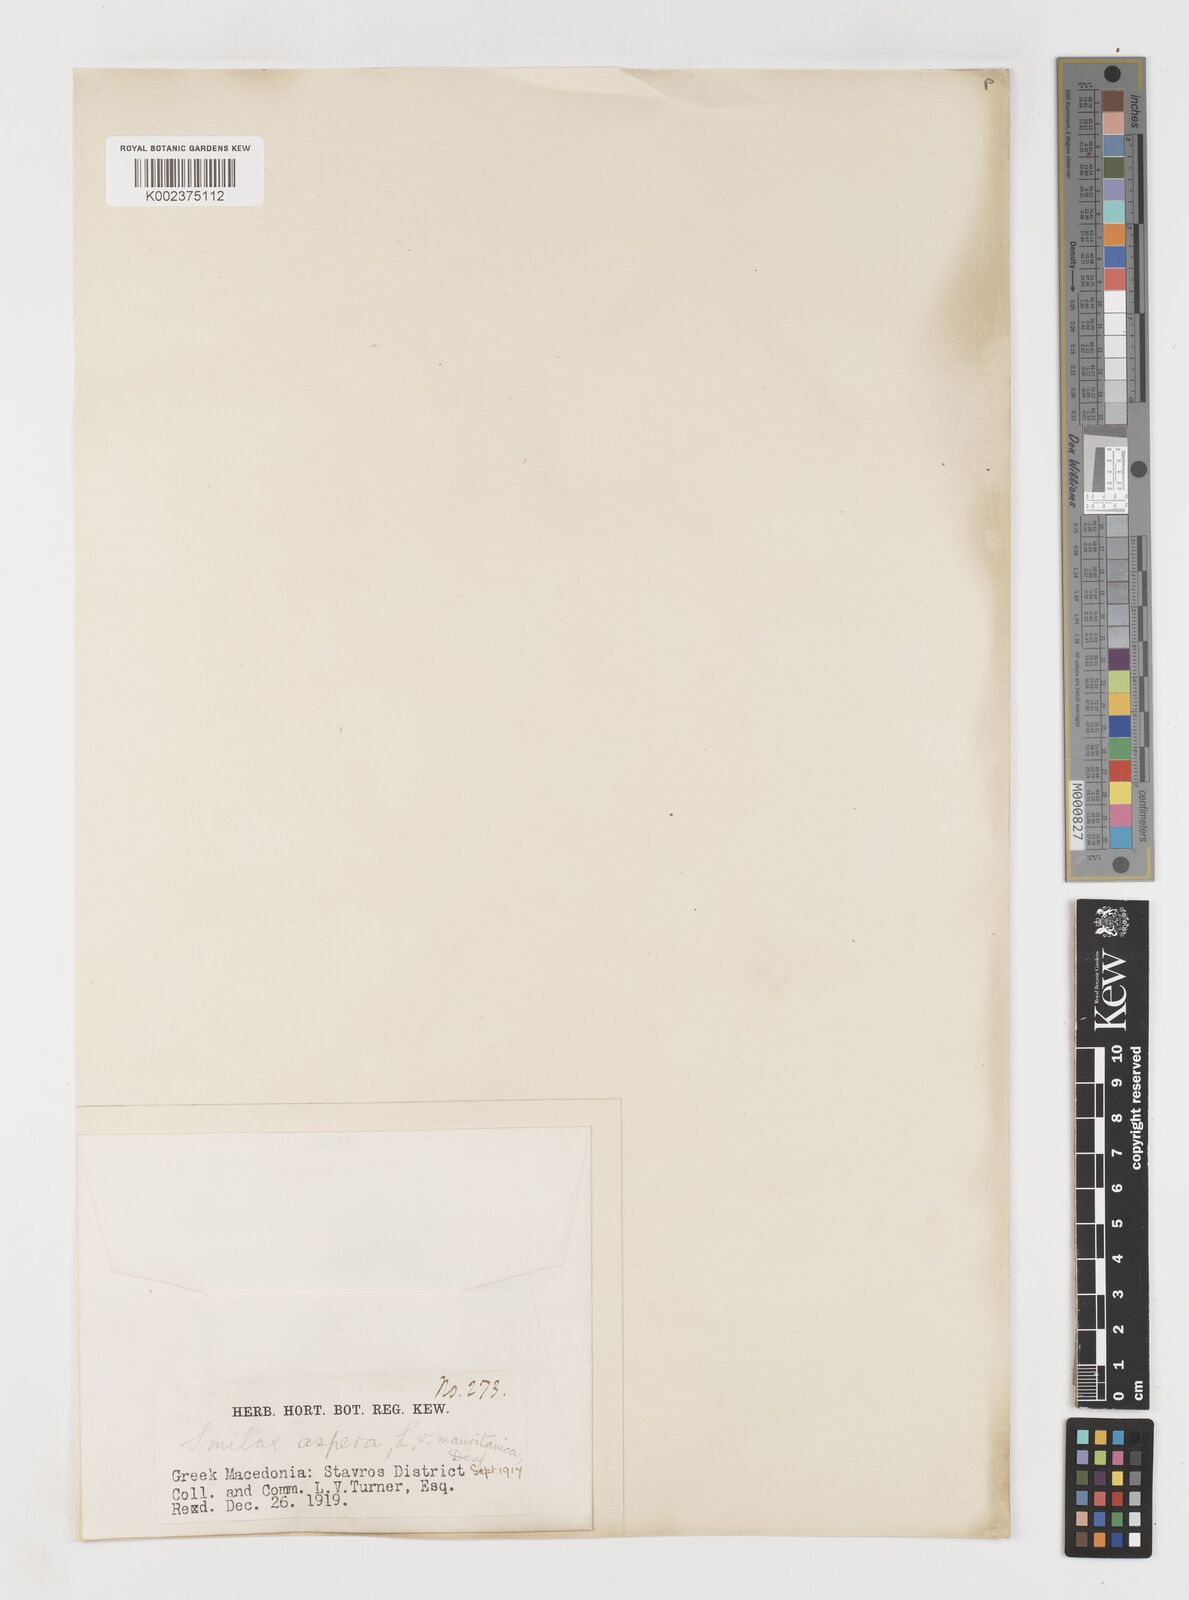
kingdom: Plantae
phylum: Tracheophyta
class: Liliopsida
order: Liliales
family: Smilacaceae
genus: Smilax
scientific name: Smilax aspera
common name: Common smilax
